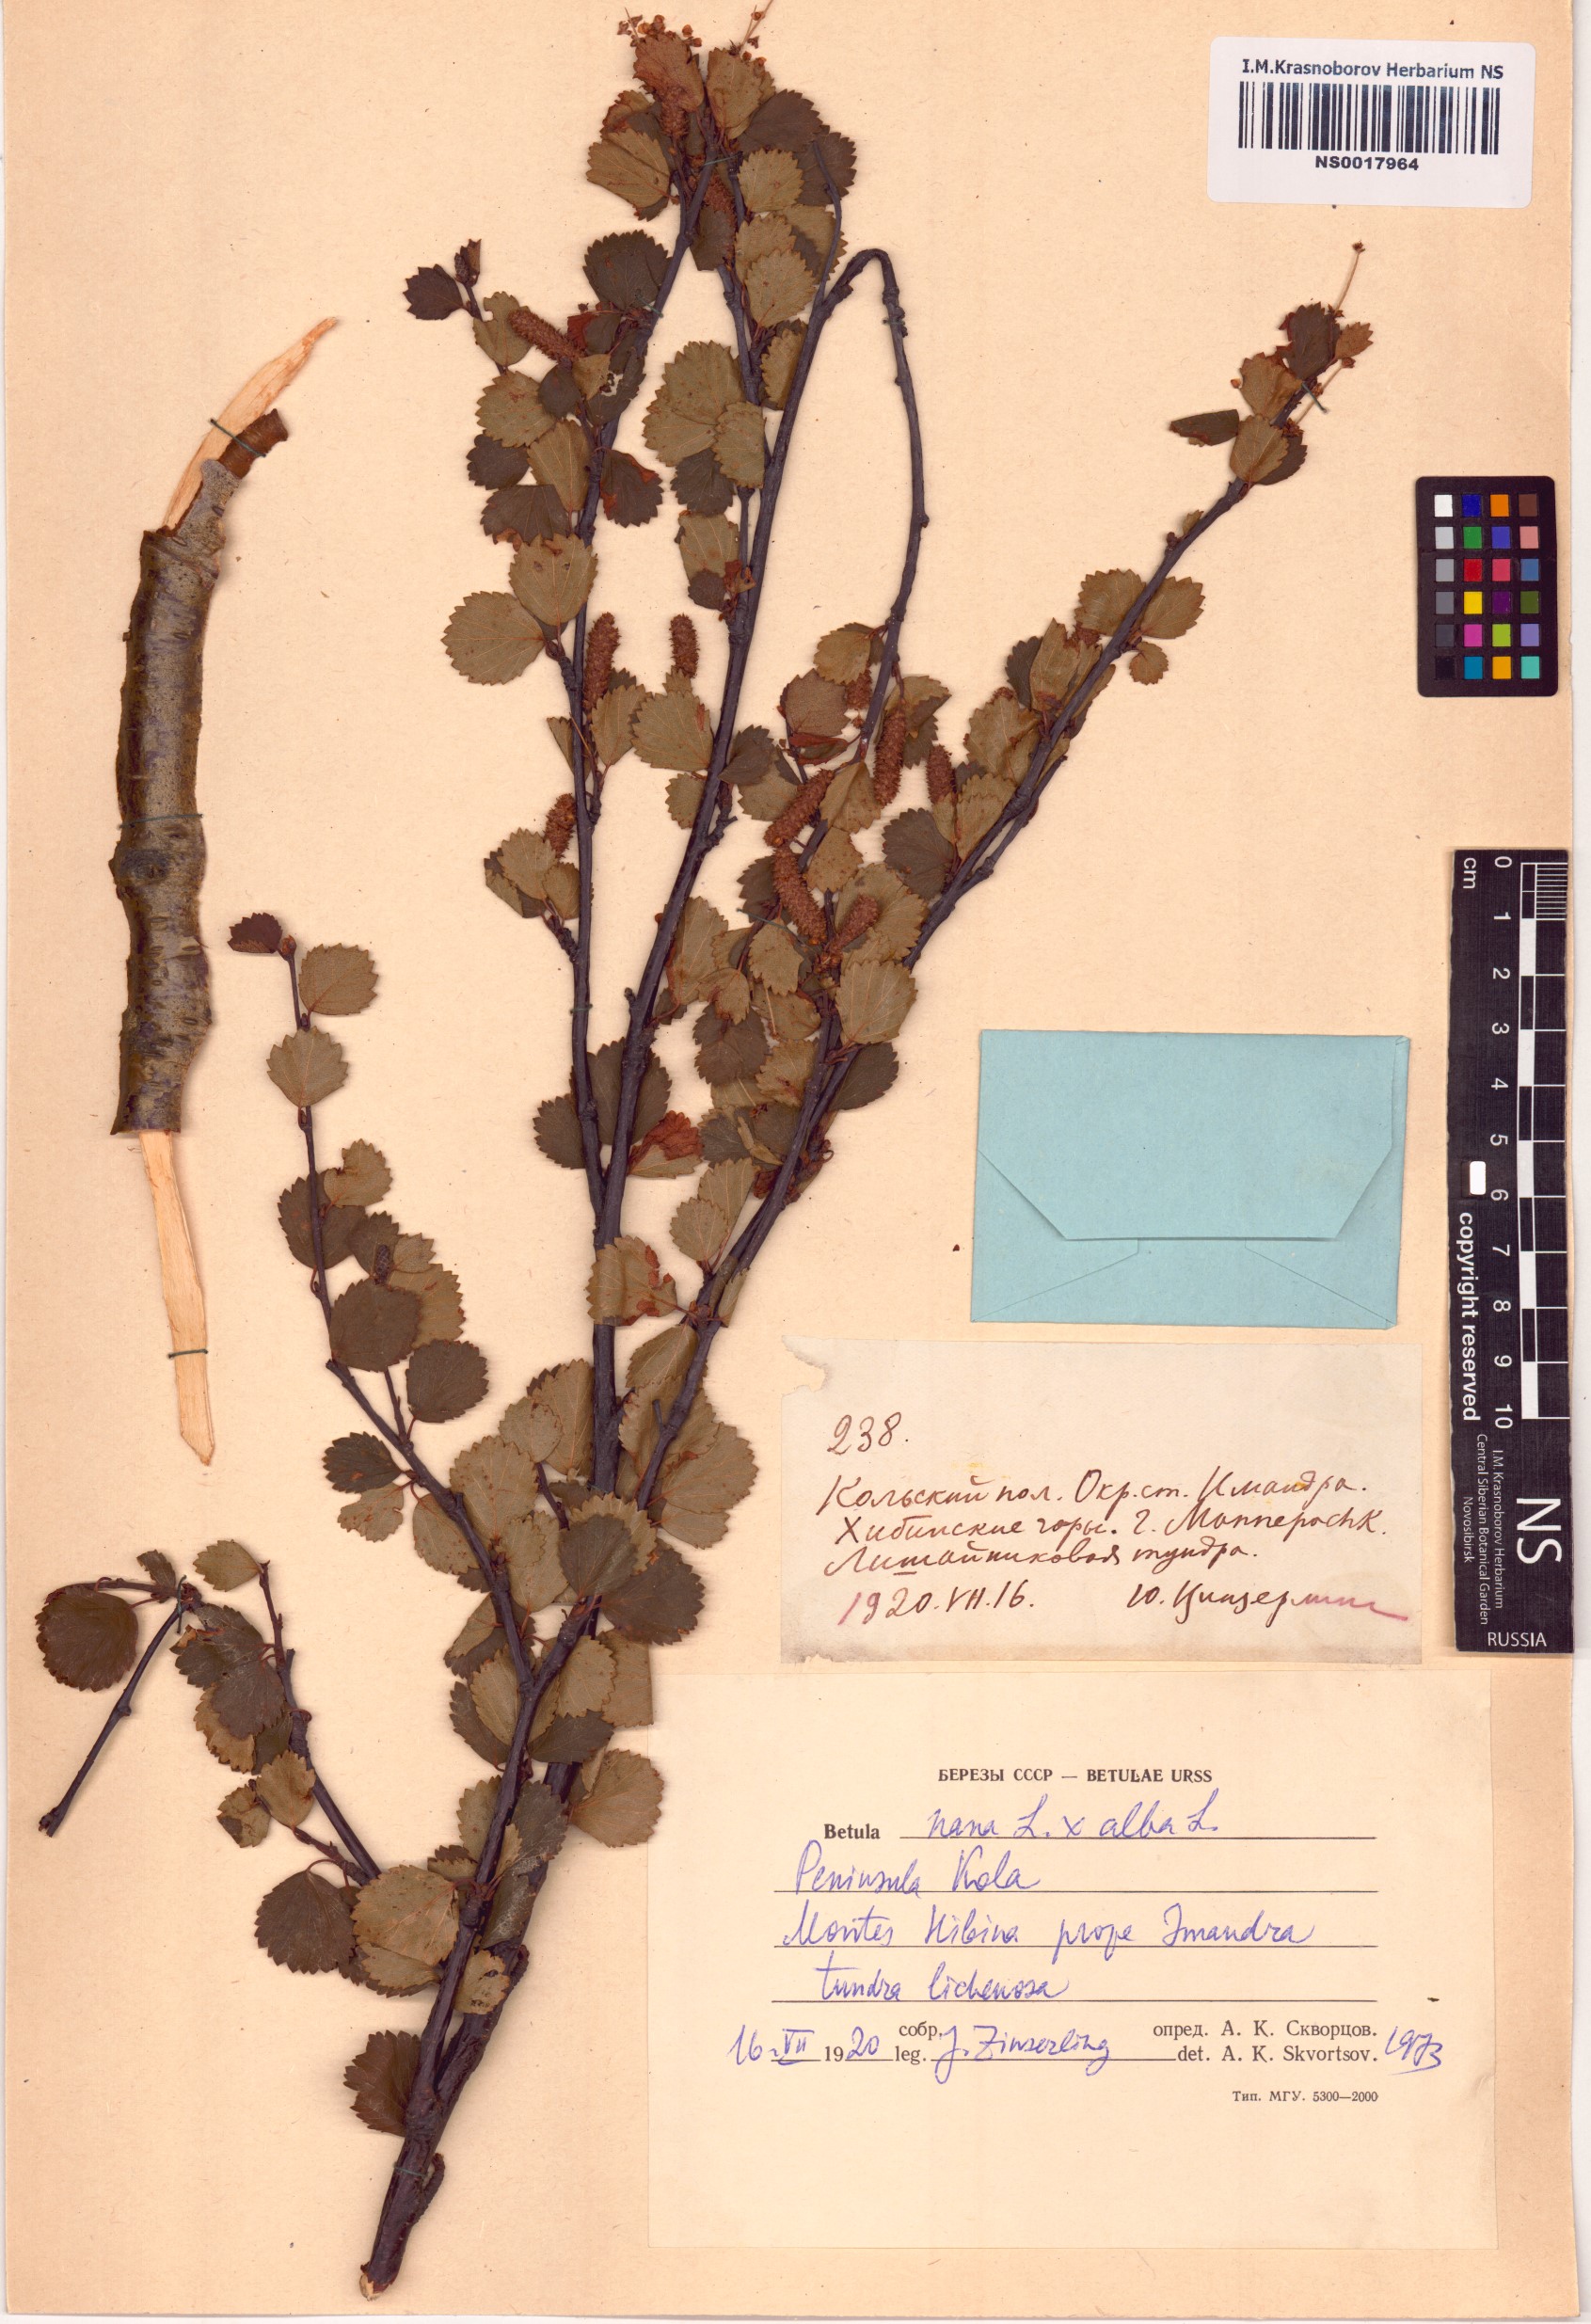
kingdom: Plantae
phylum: Tracheophyta
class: Magnoliopsida
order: Fagales
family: Betulaceae
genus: Betula
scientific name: Betula nana
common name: Arctic dwarf birch
